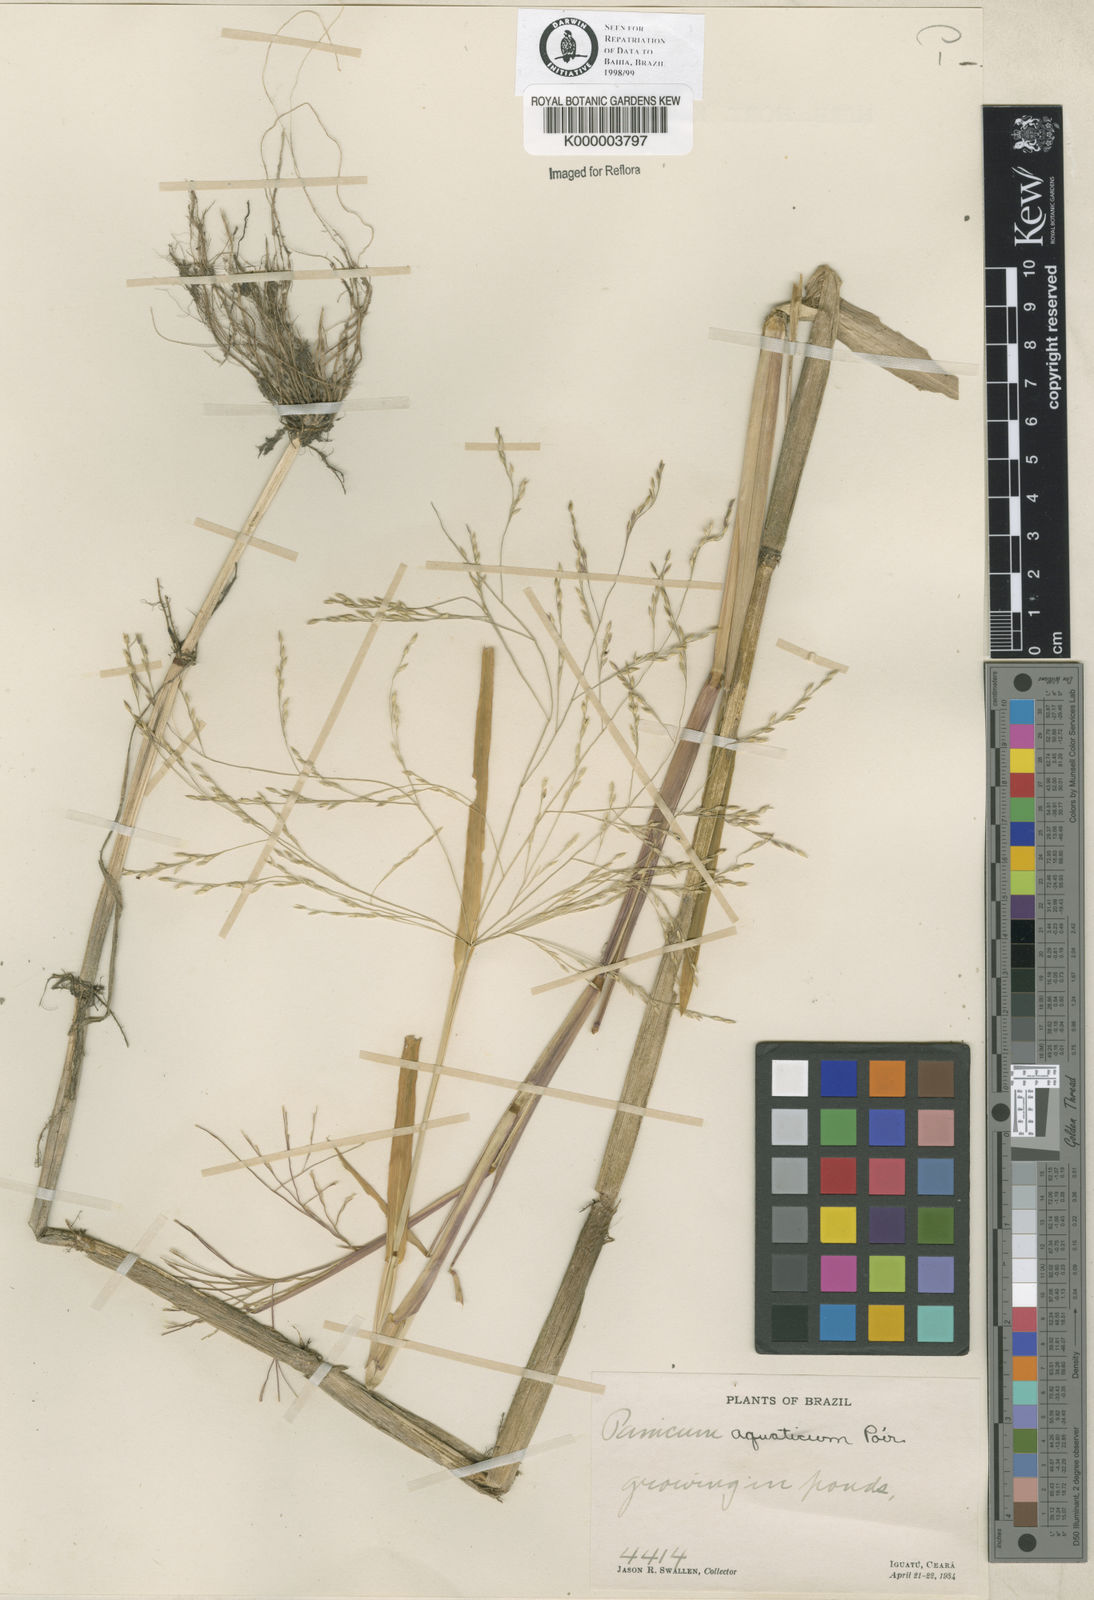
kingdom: Plantae
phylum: Tracheophyta
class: Liliopsida
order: Poales
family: Poaceae
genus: Panicum
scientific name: Panicum dichotomiflorum
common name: Autumn millet
